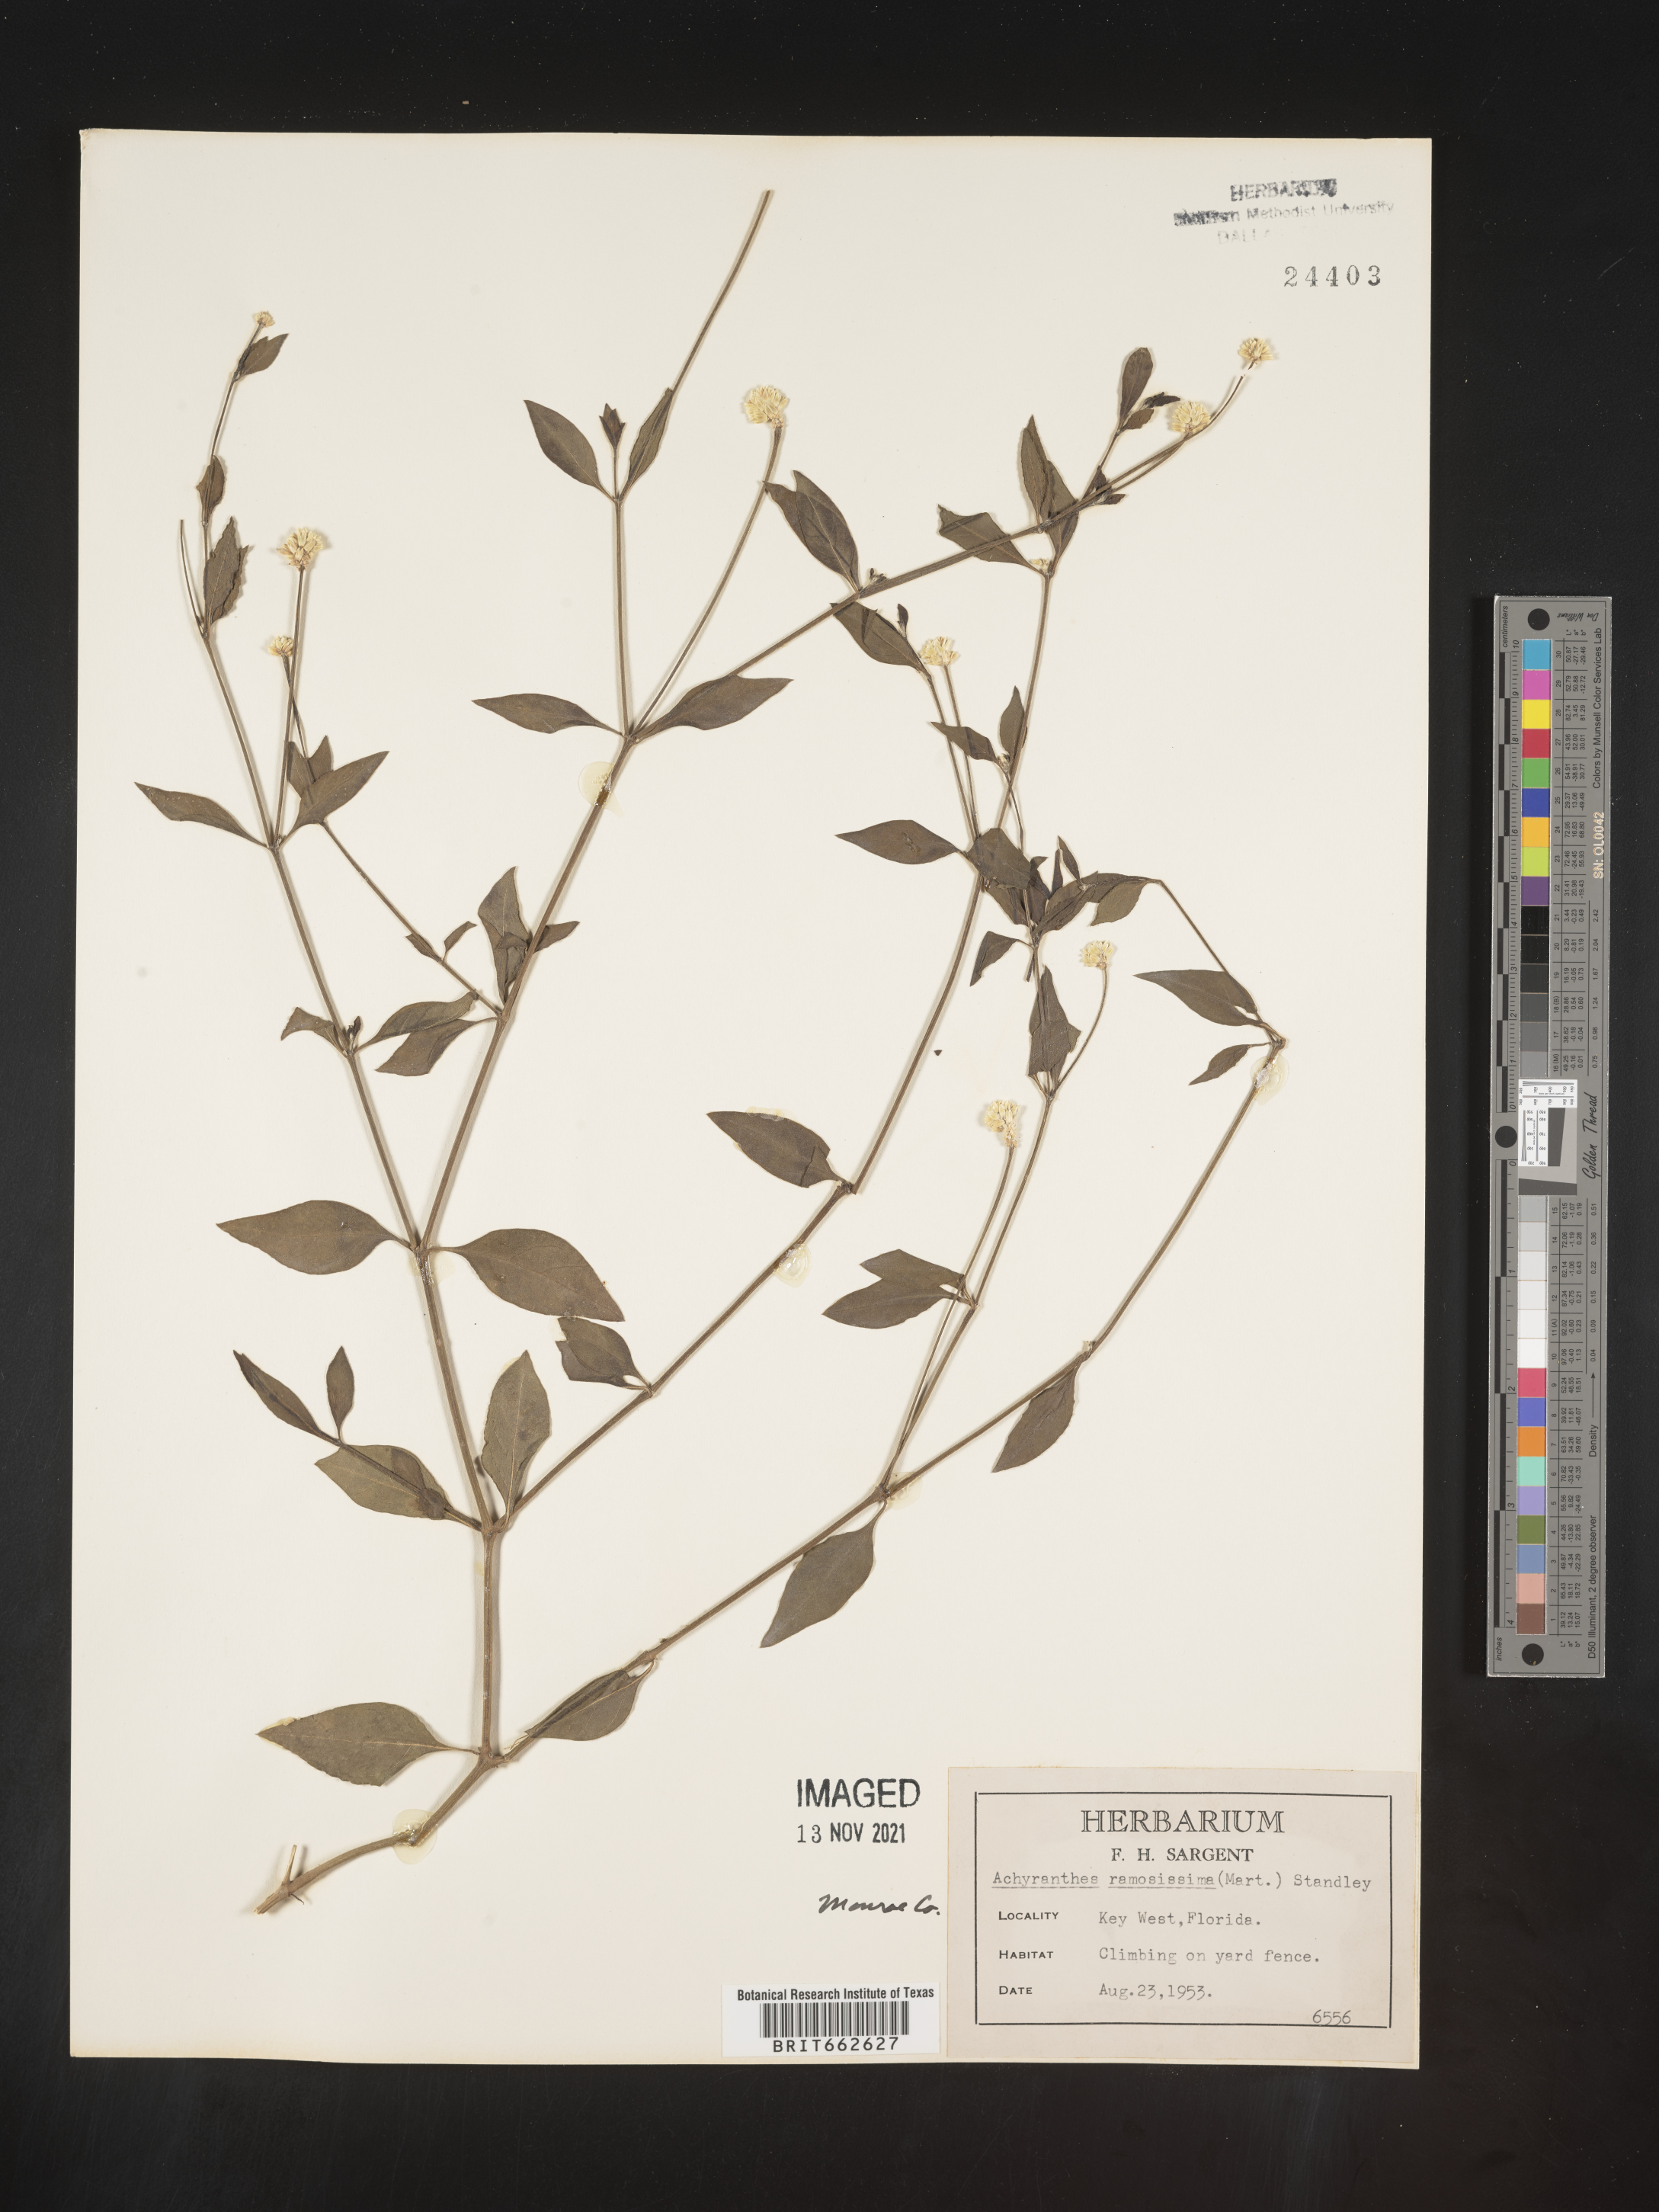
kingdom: Plantae
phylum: Tracheophyta
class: Magnoliopsida
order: Caryophyllales
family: Amaranthaceae
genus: Alternanthera
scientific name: Alternanthera ramosissima
